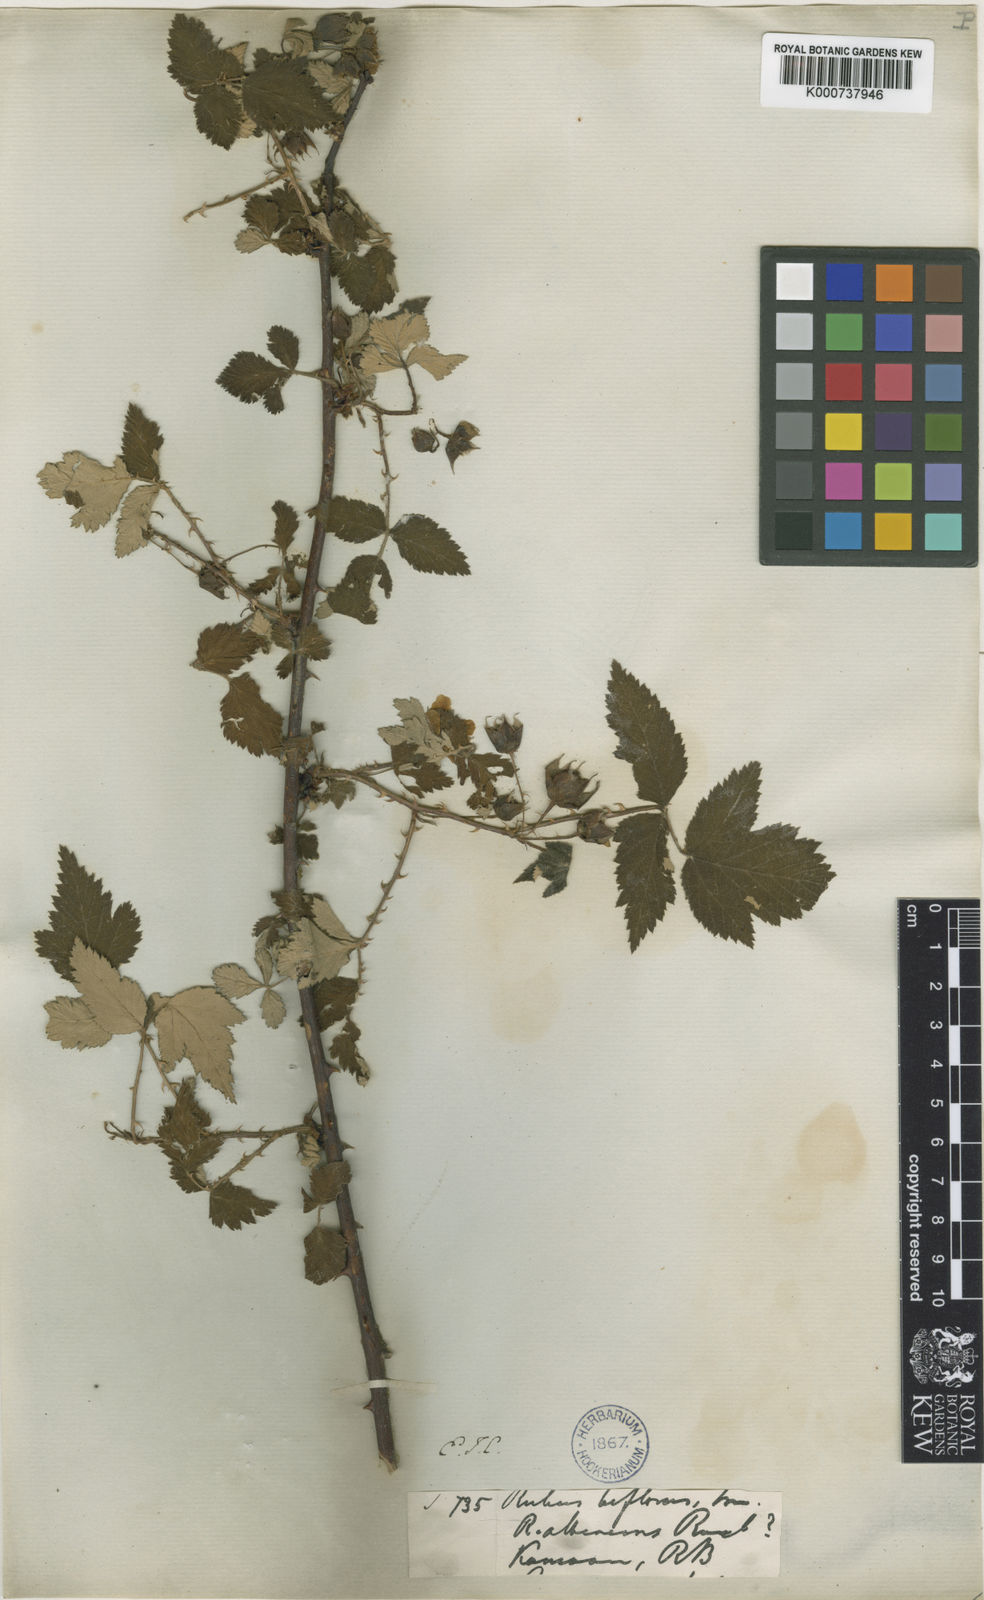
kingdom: Plantae
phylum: Tracheophyta
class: Magnoliopsida
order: Rosales
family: Rosaceae
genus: Rubus
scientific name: Rubus biflorus
